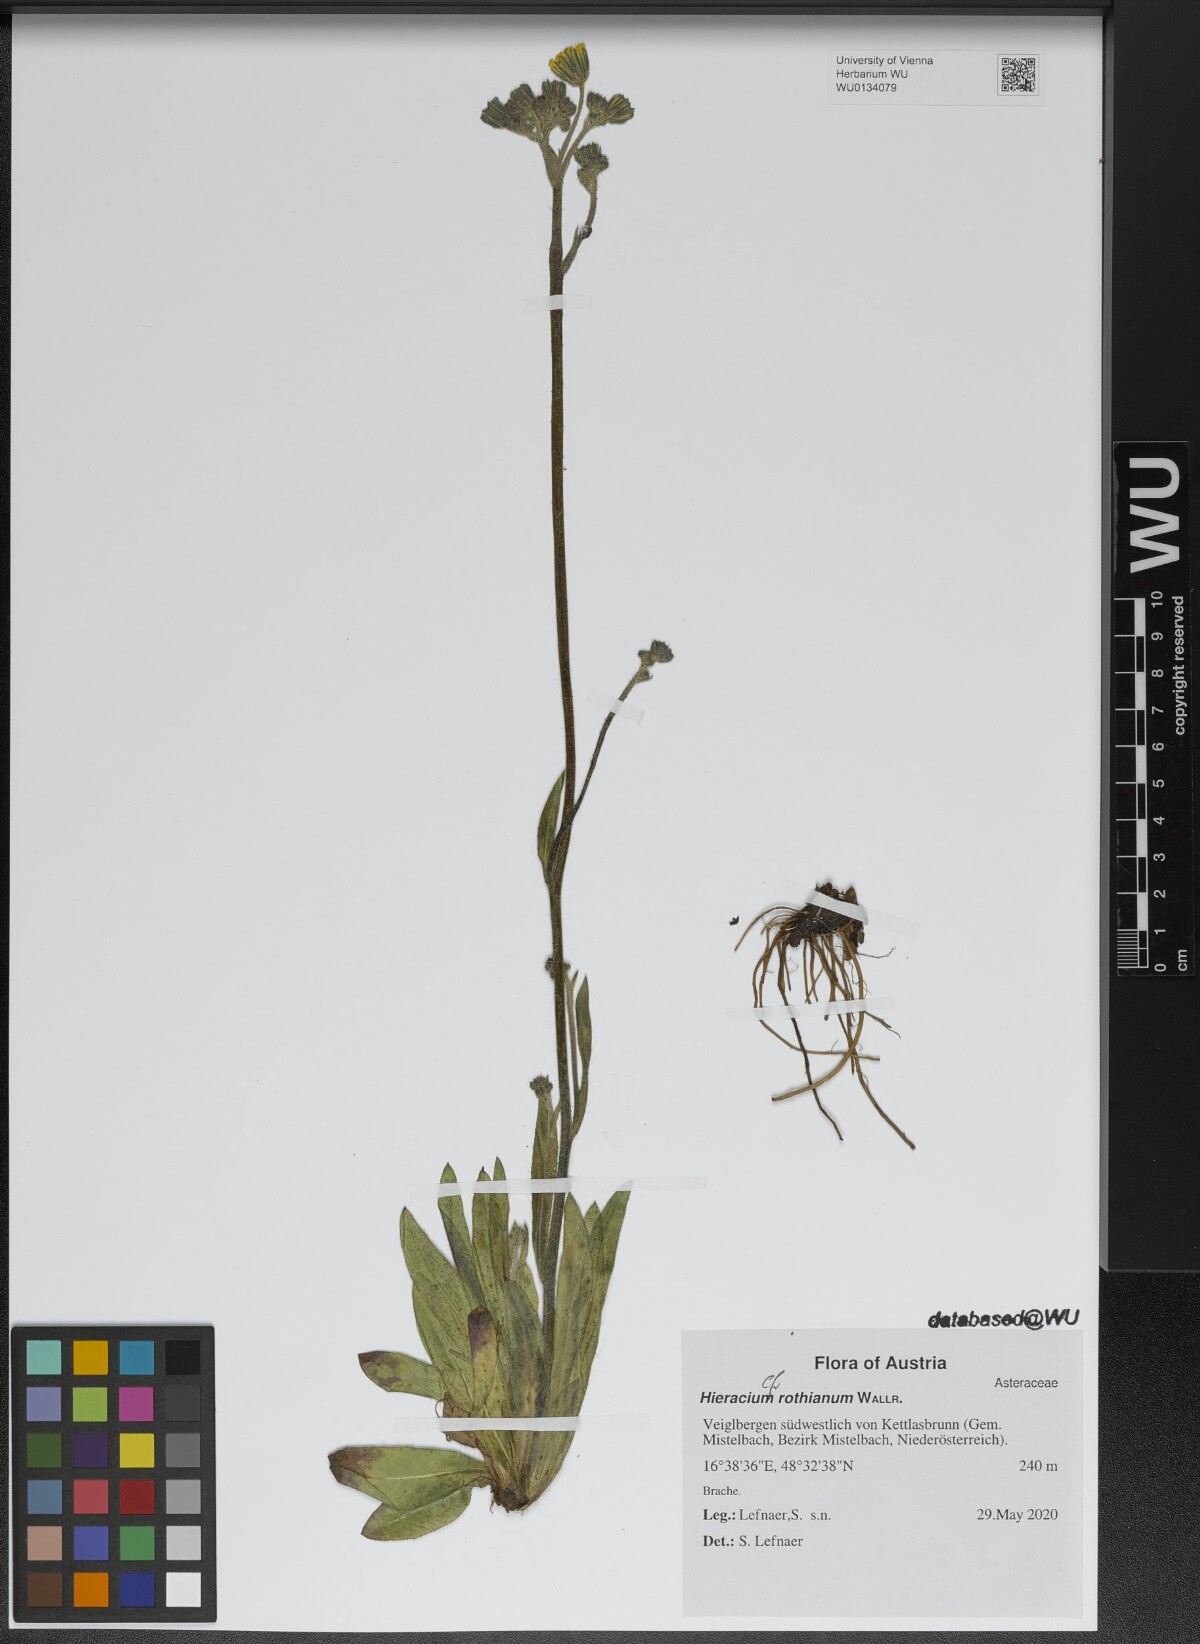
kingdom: Plantae
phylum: Tracheophyta
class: Magnoliopsida
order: Asterales
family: Asteraceae
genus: Pilosella
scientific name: Pilosella rothiana
